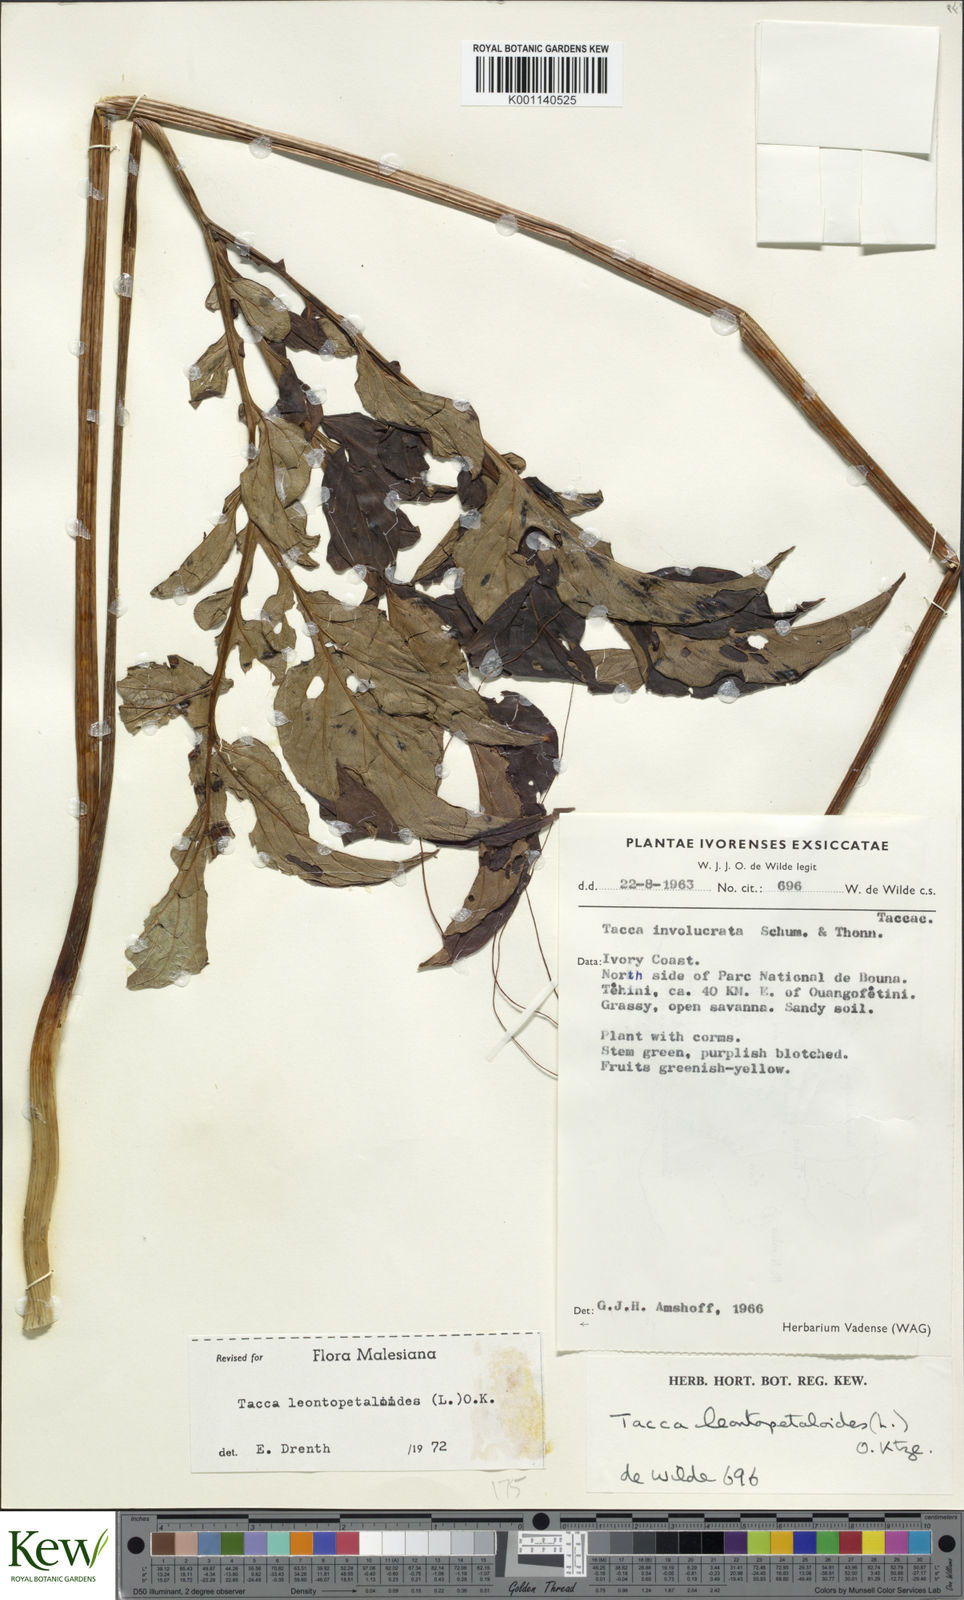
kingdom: Plantae
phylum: Tracheophyta
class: Liliopsida
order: Dioscoreales
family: Dioscoreaceae
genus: Tacca
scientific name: Tacca leontopetaloides
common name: Arrowroot
